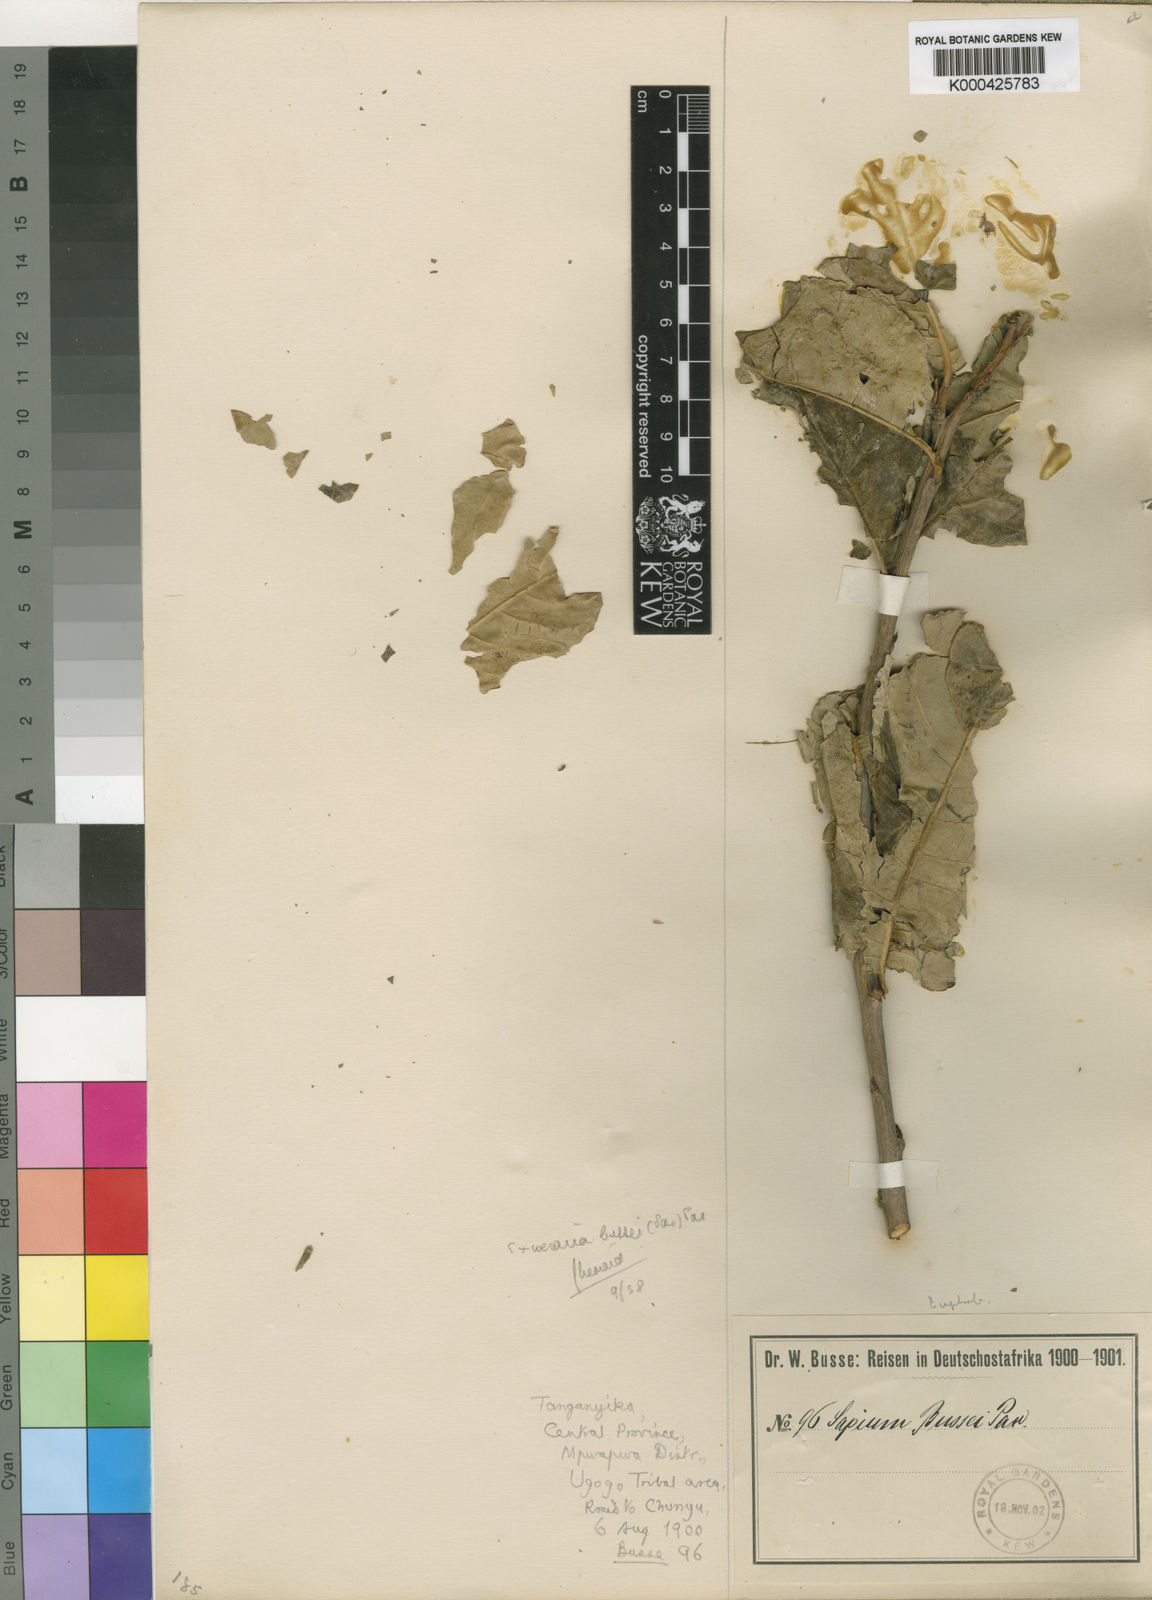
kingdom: Plantae
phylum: Tracheophyta
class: Magnoliopsida
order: Malpighiales
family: Euphorbiaceae
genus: Excoecaria
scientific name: Excoecaria bussei
